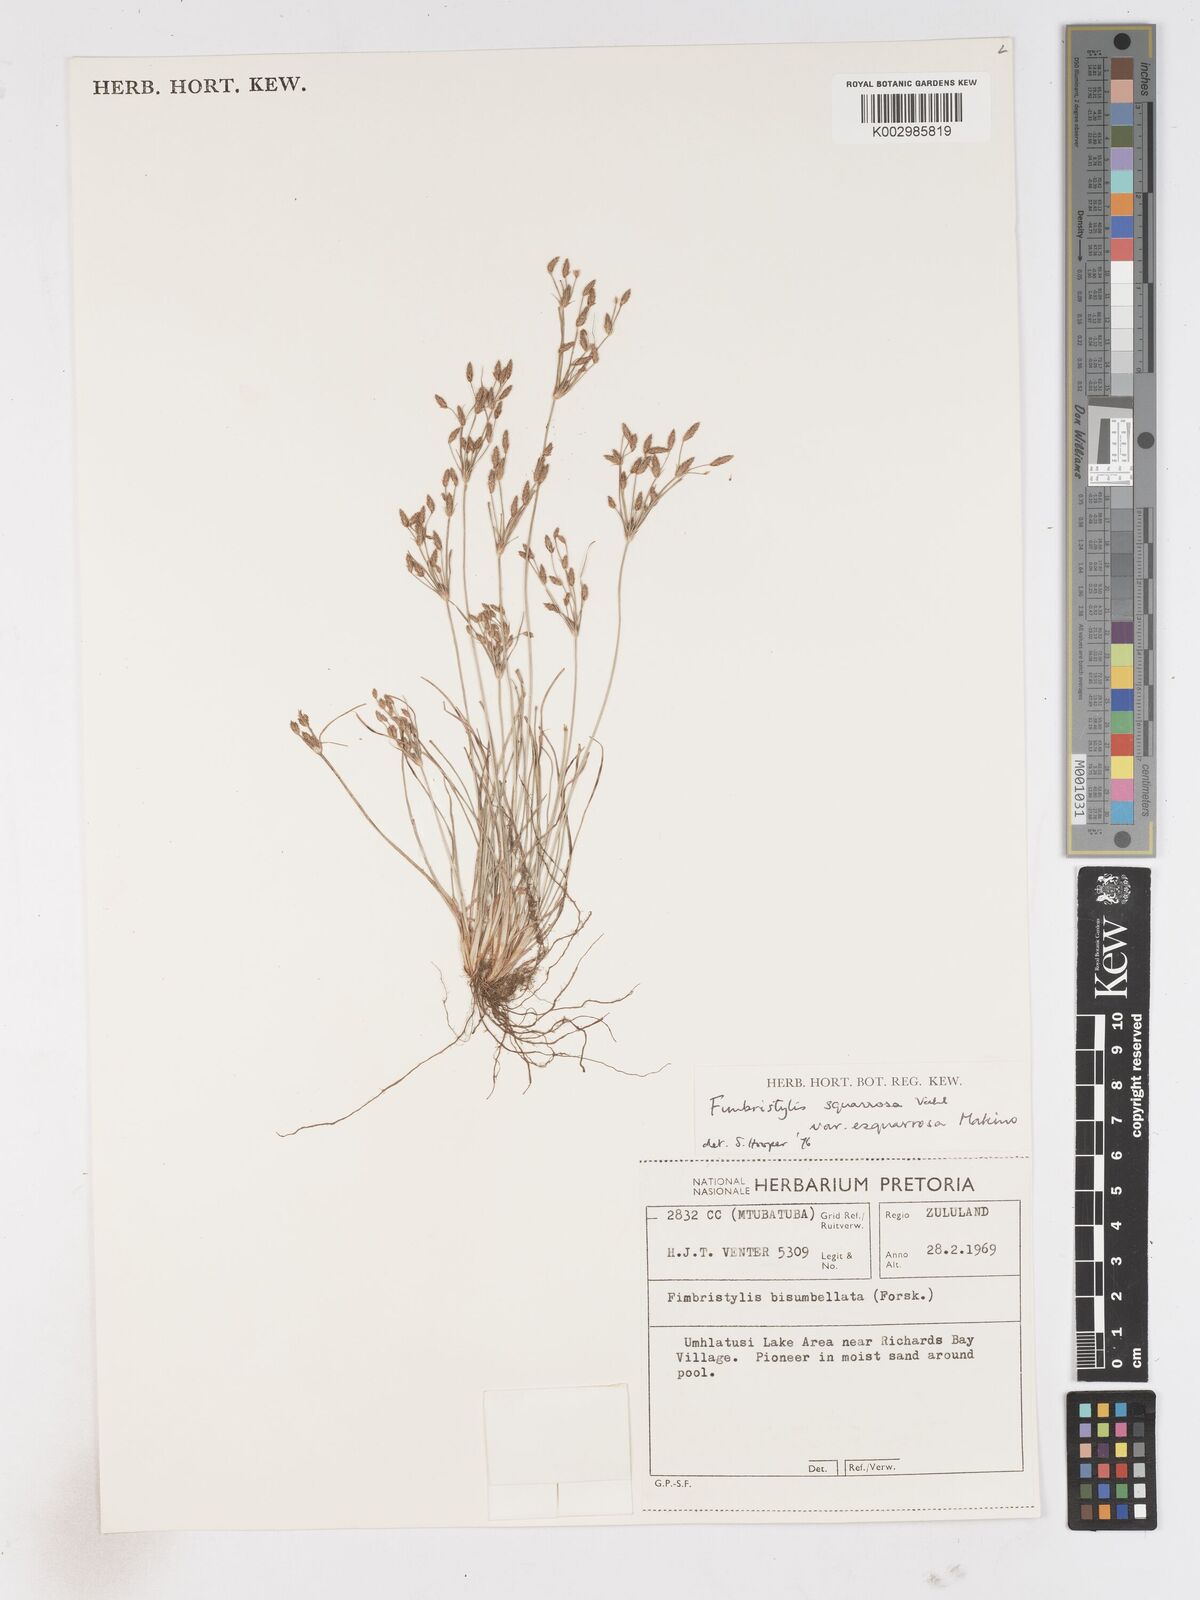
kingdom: Plantae
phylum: Tracheophyta
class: Liliopsida
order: Poales
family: Cyperaceae
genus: Fimbristylis
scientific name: Fimbristylis velata
